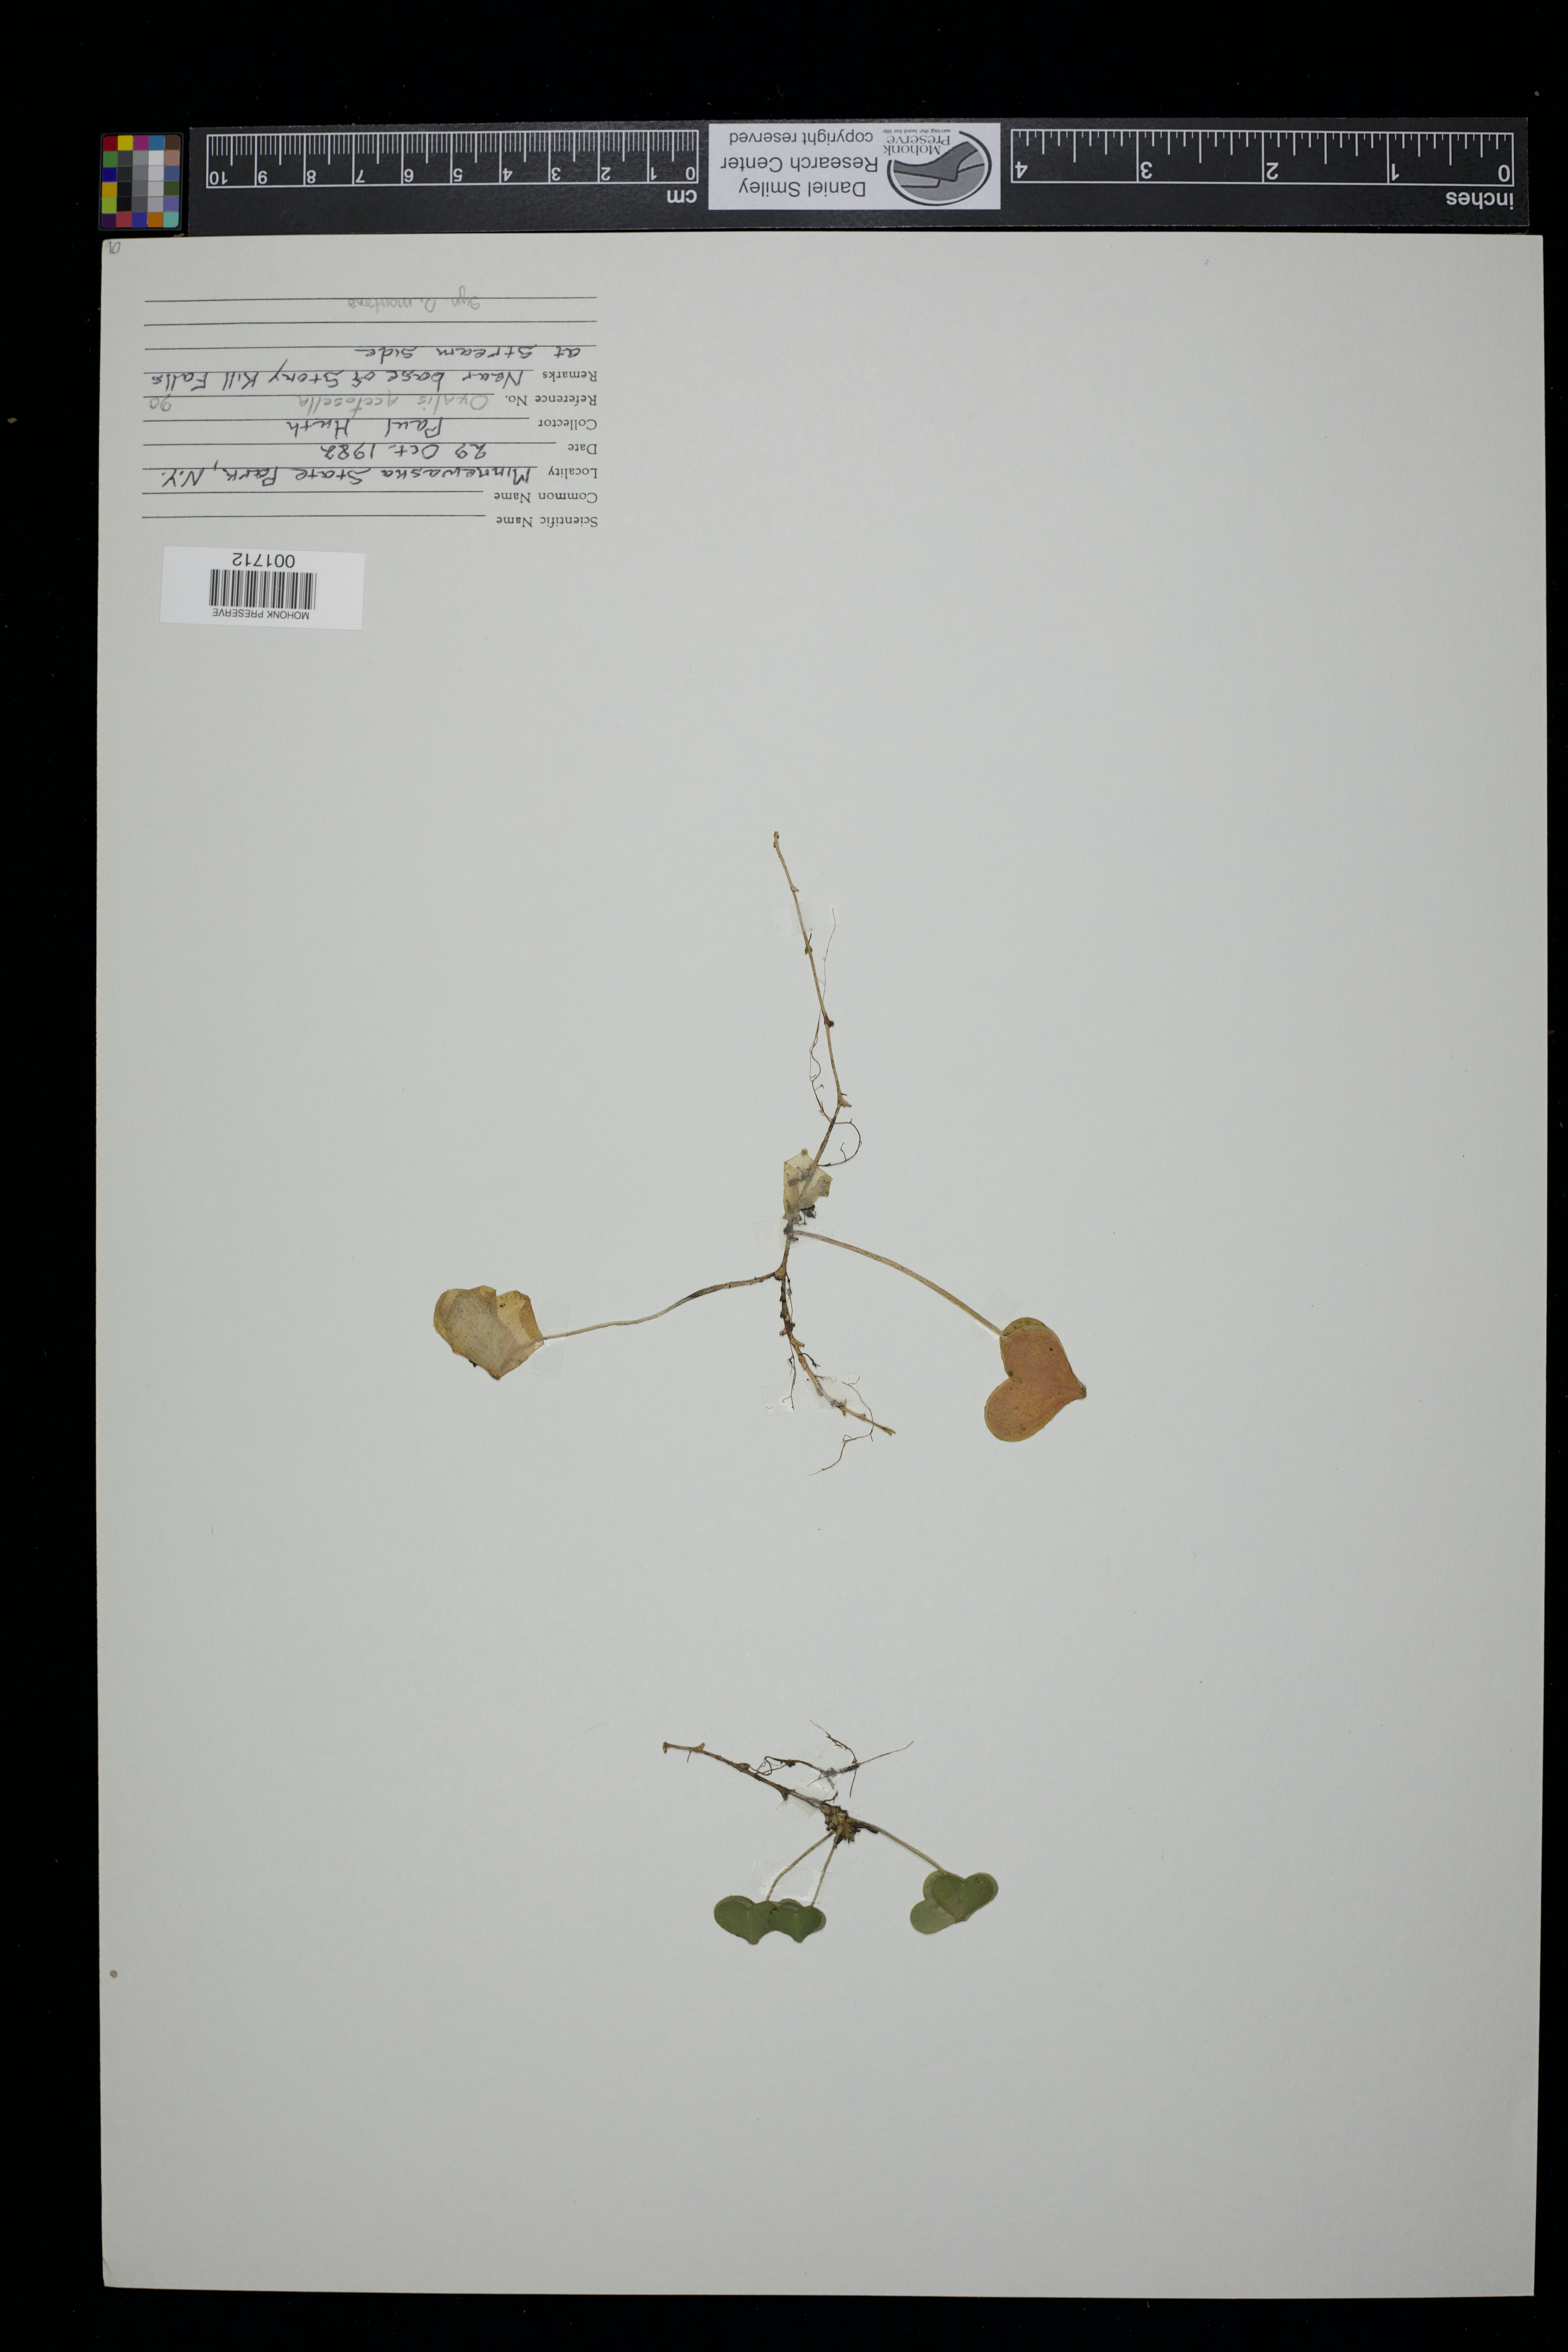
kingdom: Plantae
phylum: Tracheophyta
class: Magnoliopsida
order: Oxalidales
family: Oxalidaceae
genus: Oxalis
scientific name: Oxalis acetosella
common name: Wood-sorrel
